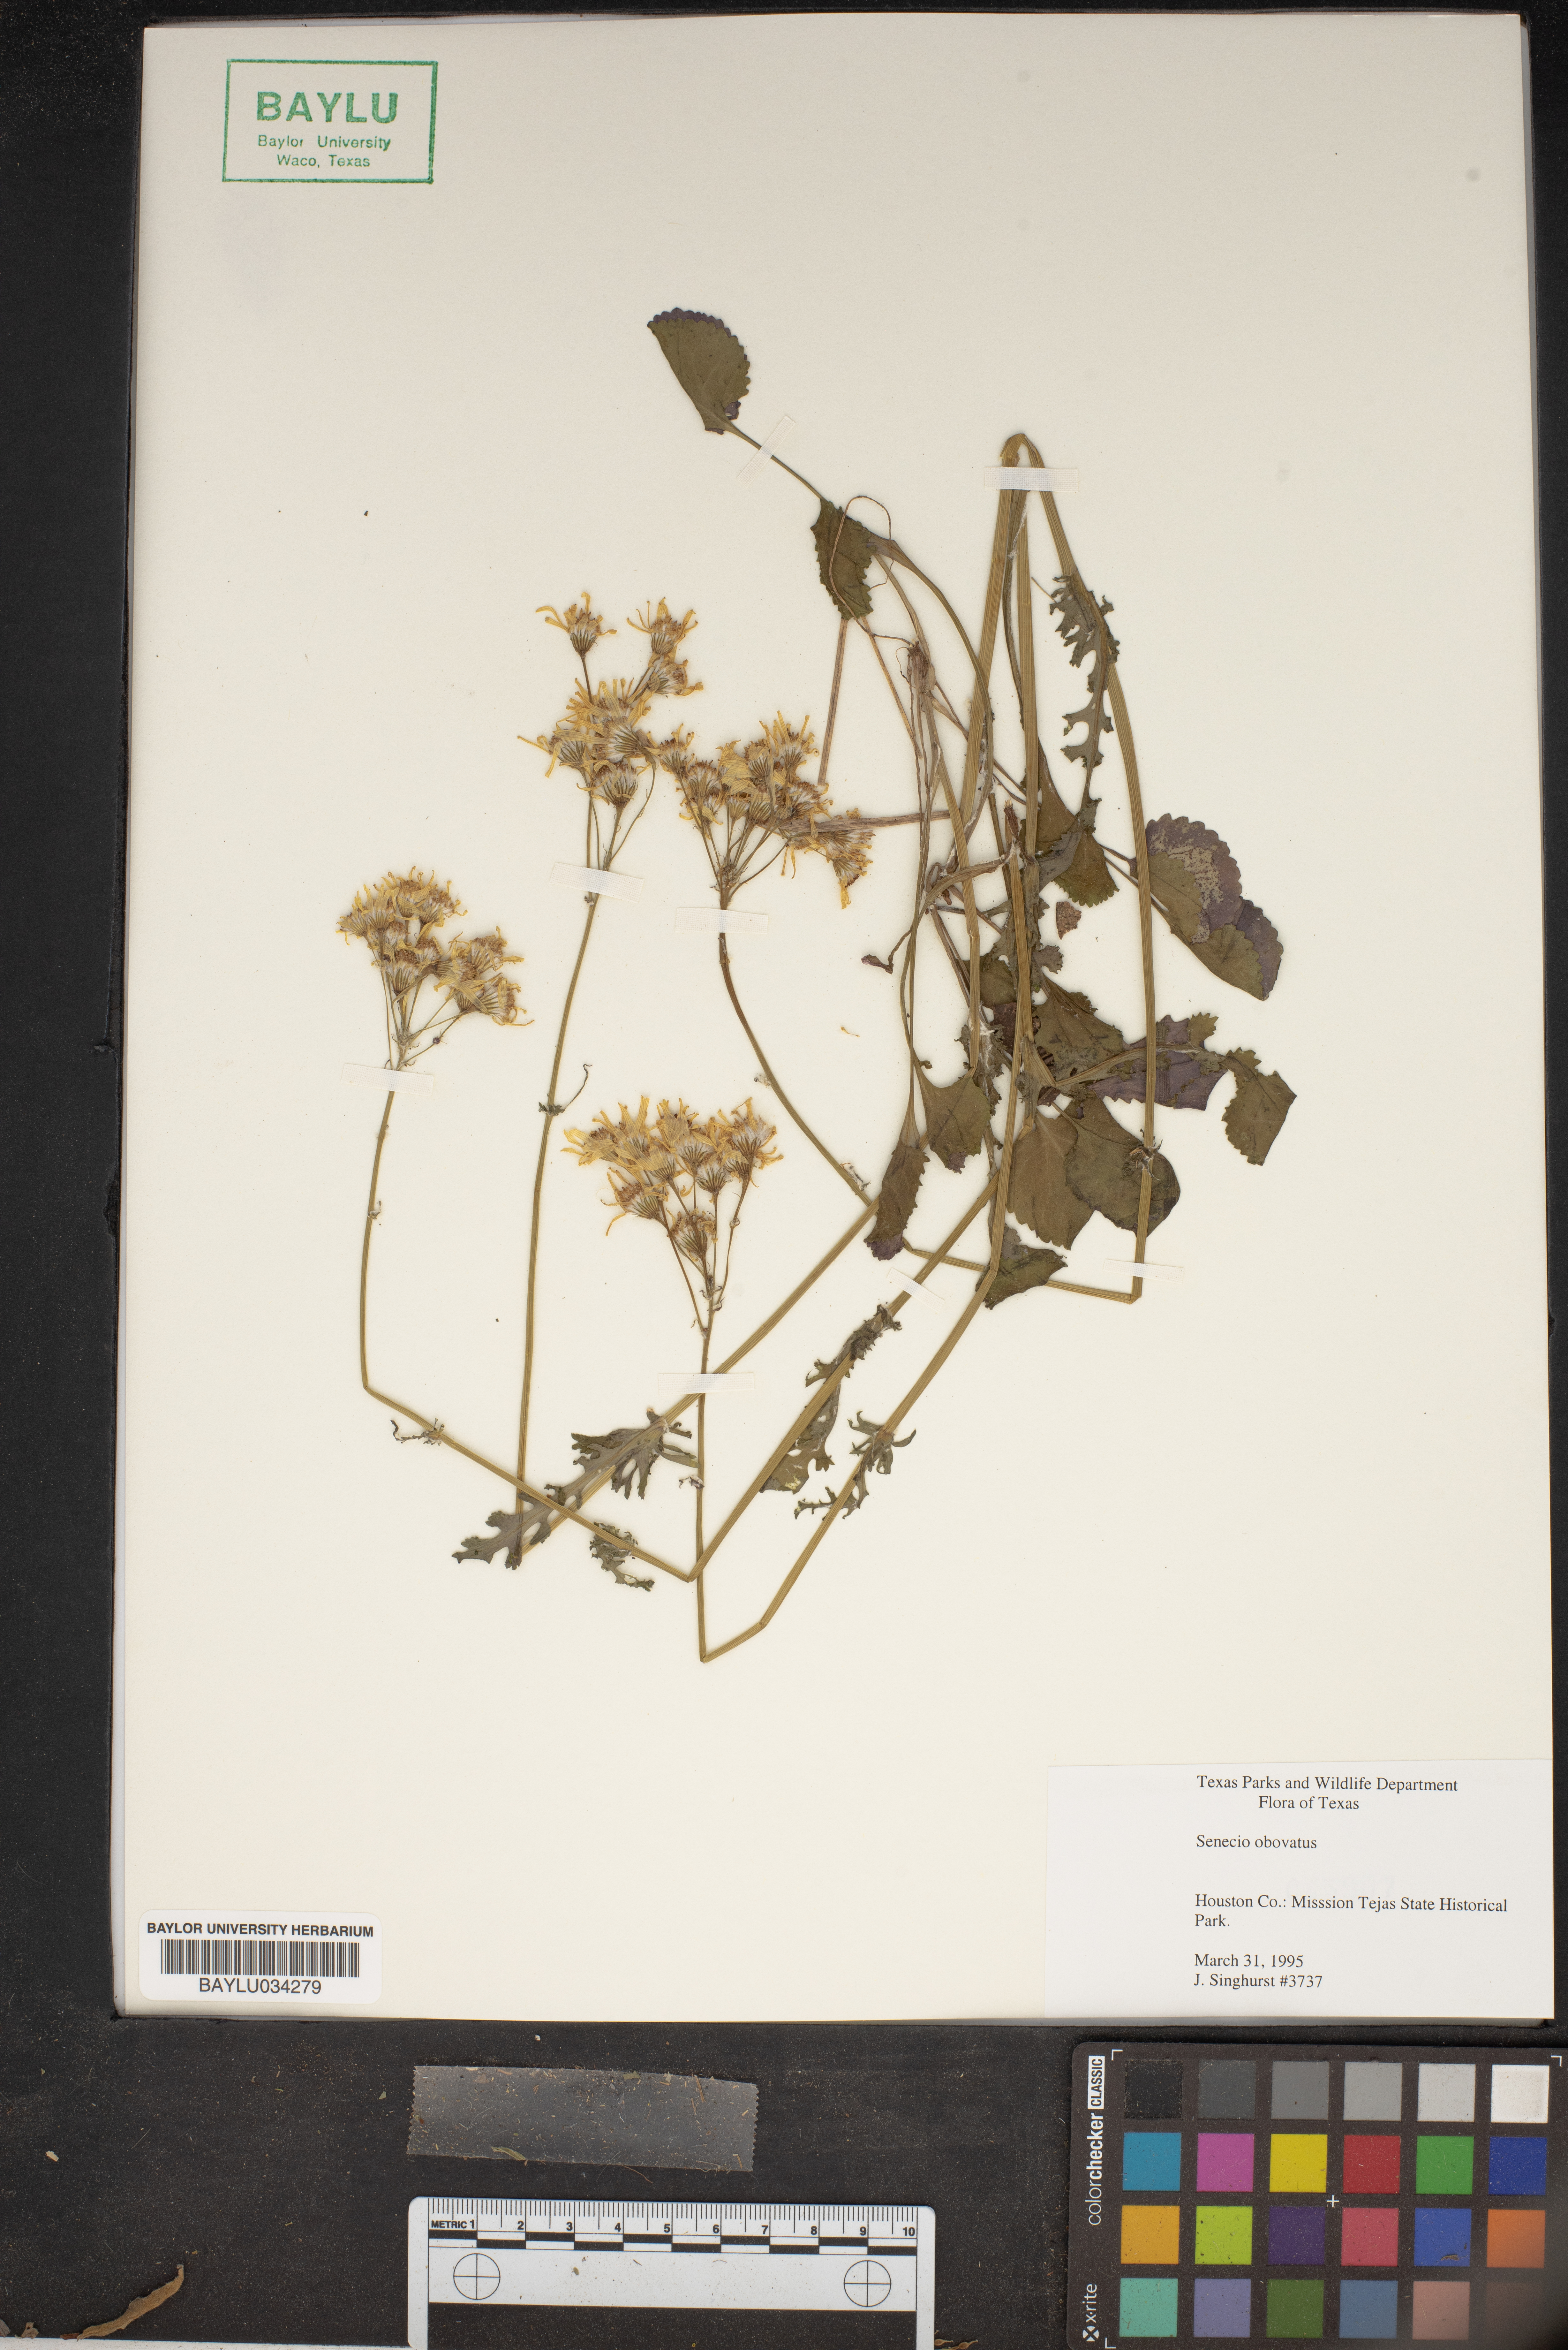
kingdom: Plantae
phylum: Tracheophyta
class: Magnoliopsida
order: Asterales
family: Asteraceae
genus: Senecio
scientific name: Senecio provincialis
